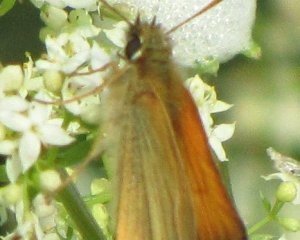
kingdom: Animalia
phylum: Arthropoda
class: Insecta
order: Lepidoptera
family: Hesperiidae
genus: Thymelicus
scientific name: Thymelicus lineola
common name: European Skipper
